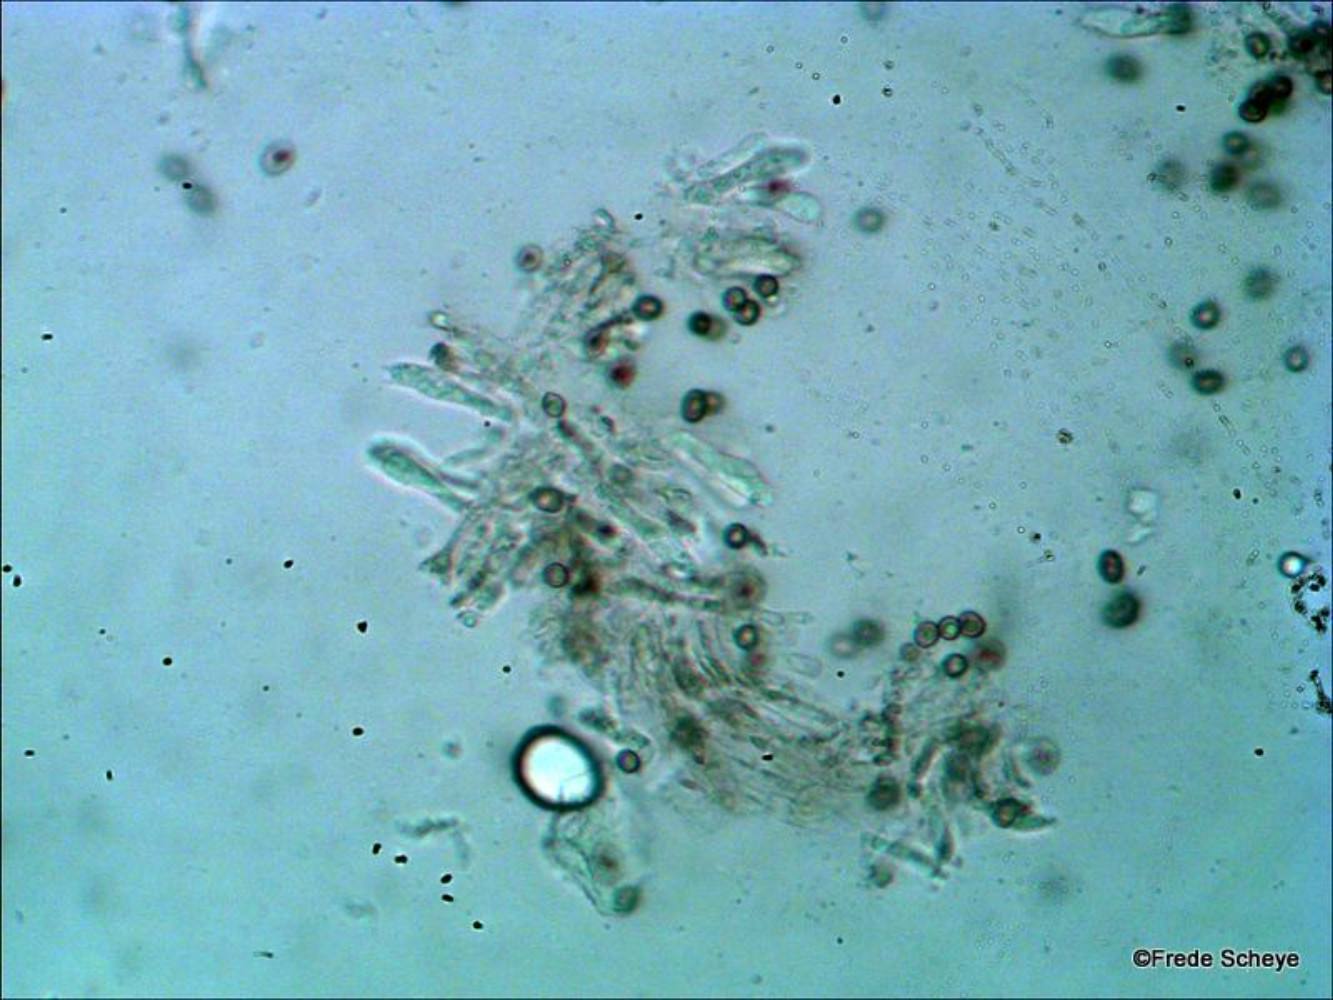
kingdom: Fungi
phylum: Basidiomycota
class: Agaricomycetes
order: Agaricales
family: Agaricaceae
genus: Agaricus
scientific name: Agaricus subperonatus
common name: knippe-champignon
